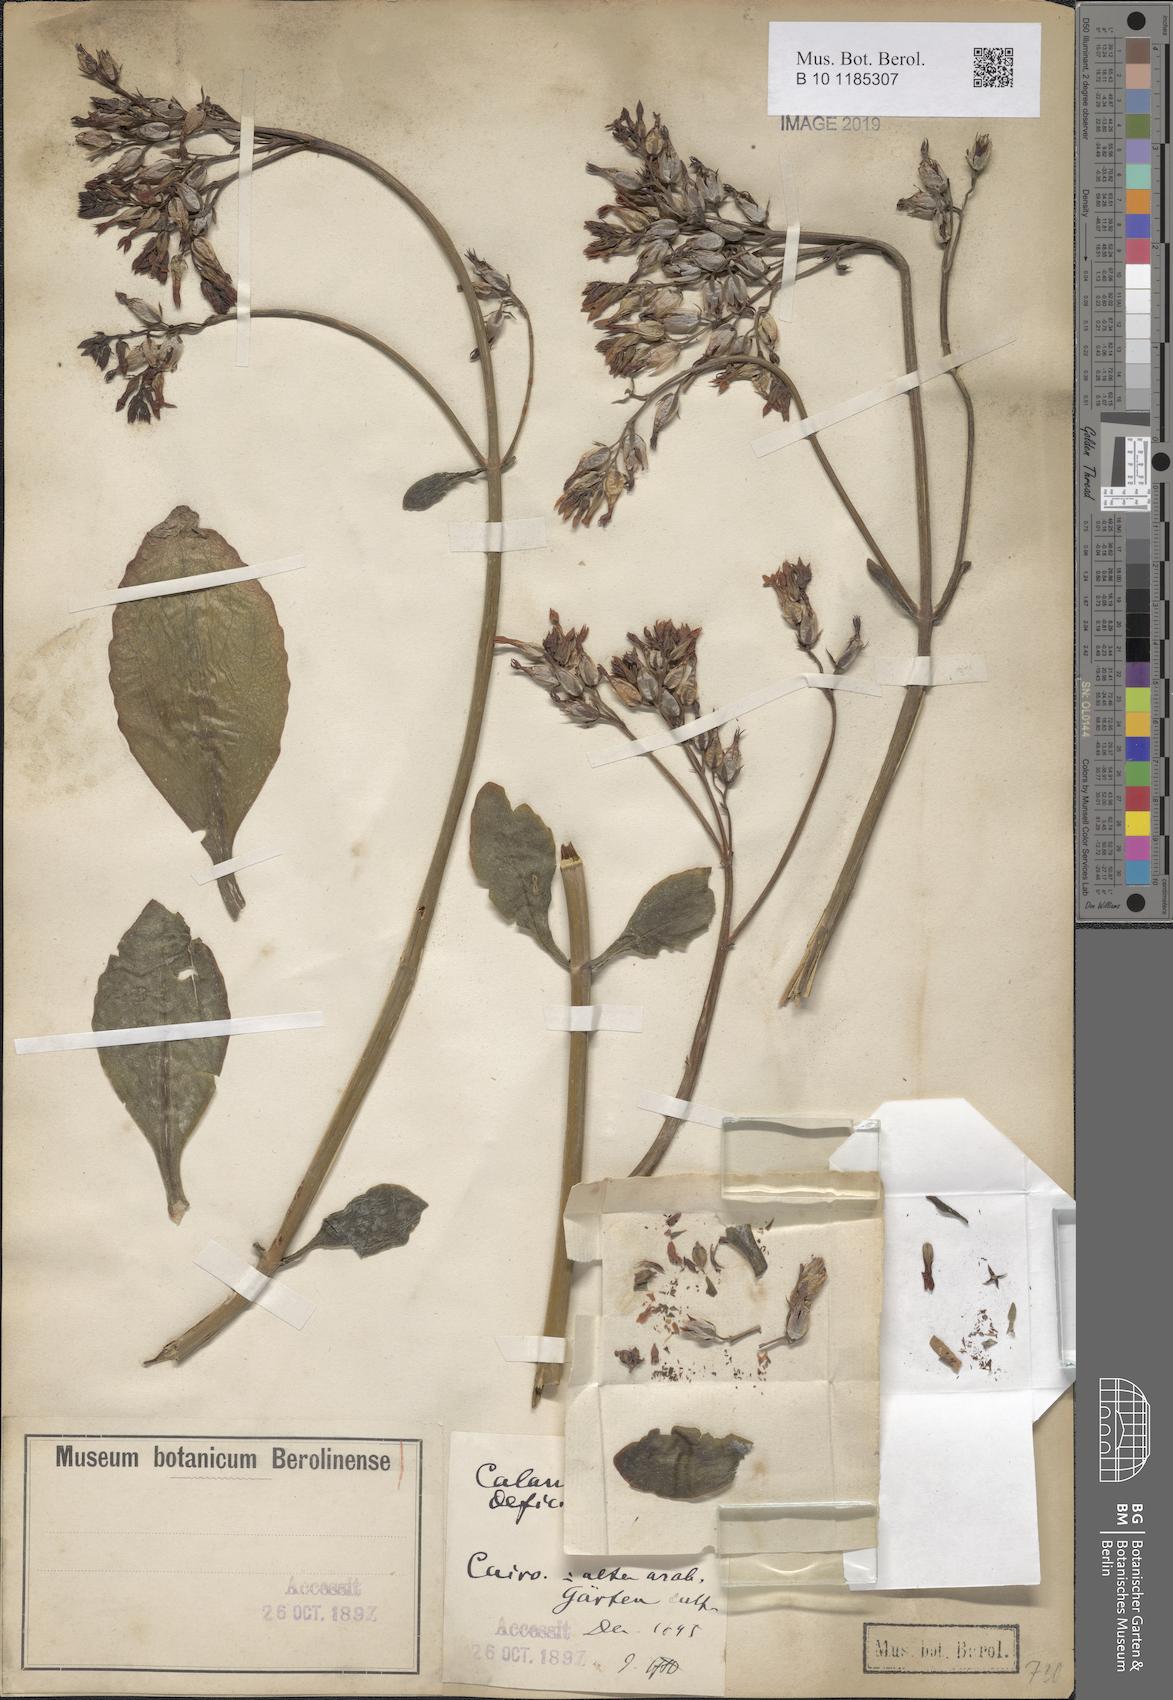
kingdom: Plantae
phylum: Tracheophyta
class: Magnoliopsida
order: Saxifragales
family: Crassulaceae
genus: Kalanchoe
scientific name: Kalanchoe deficiens
